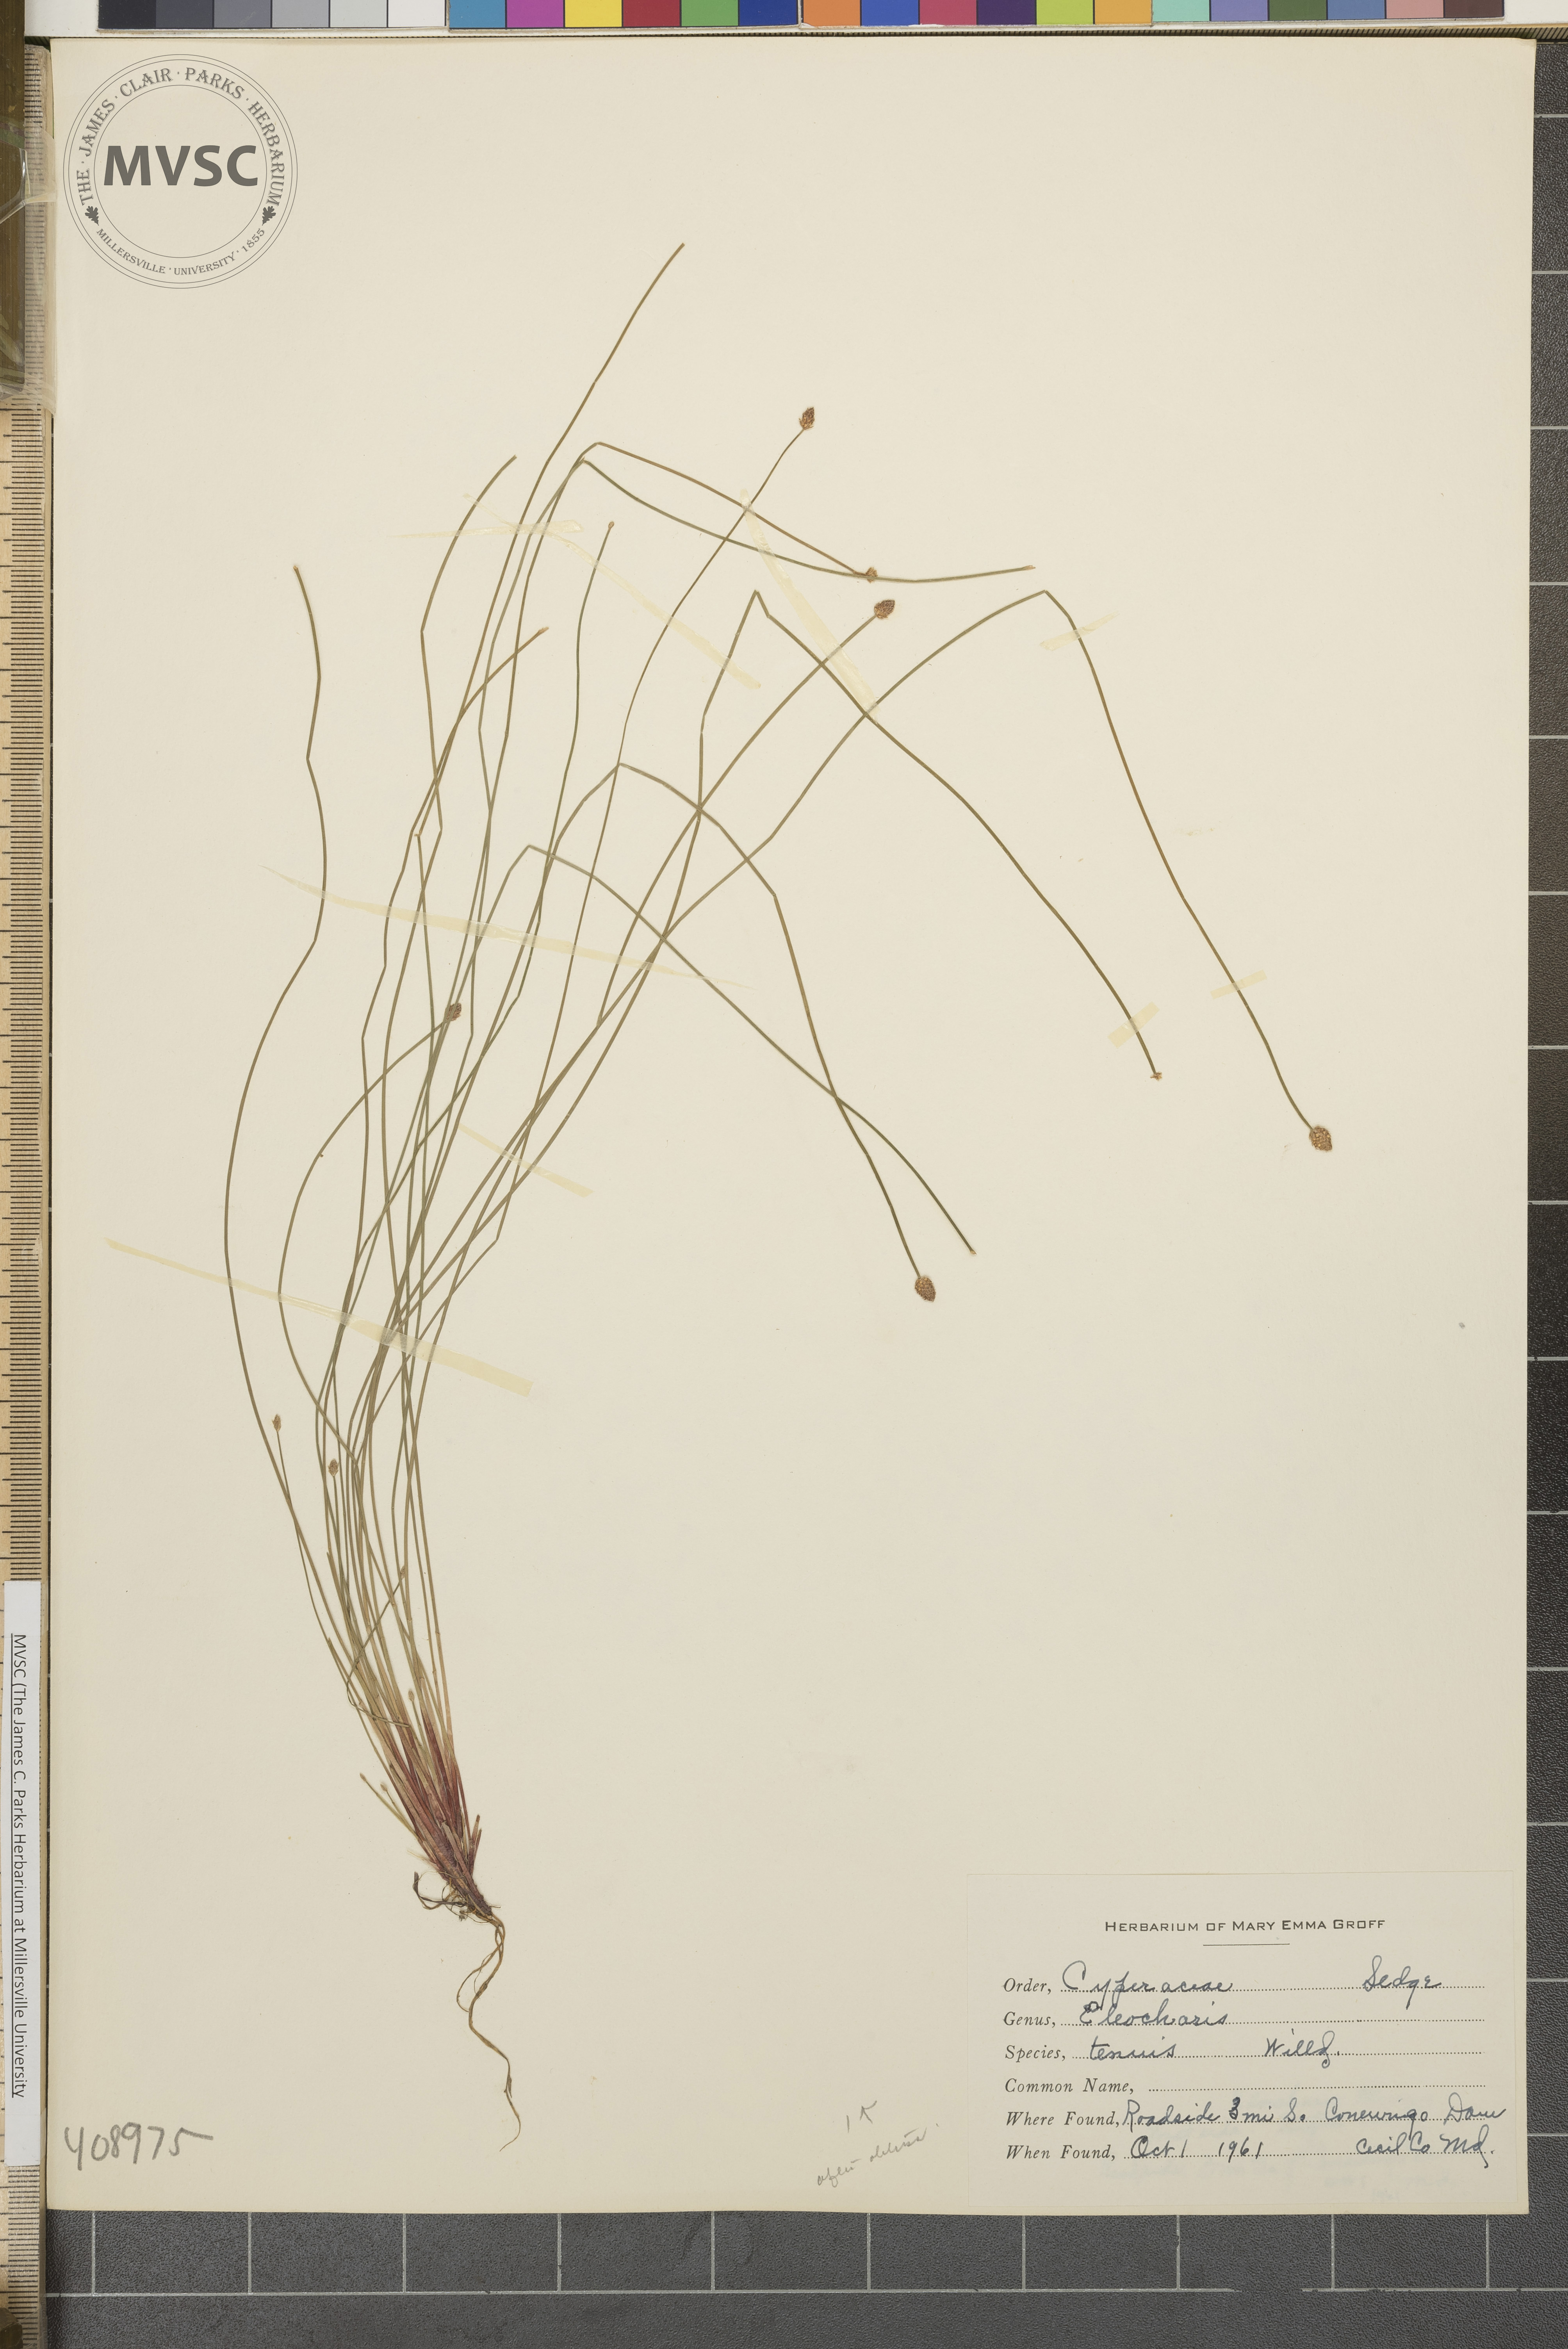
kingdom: Plantae
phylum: Tracheophyta
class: Liliopsida
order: Poales
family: Cyperaceae
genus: Eleocharis
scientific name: Eleocharis tenuis
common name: Dog's hair
